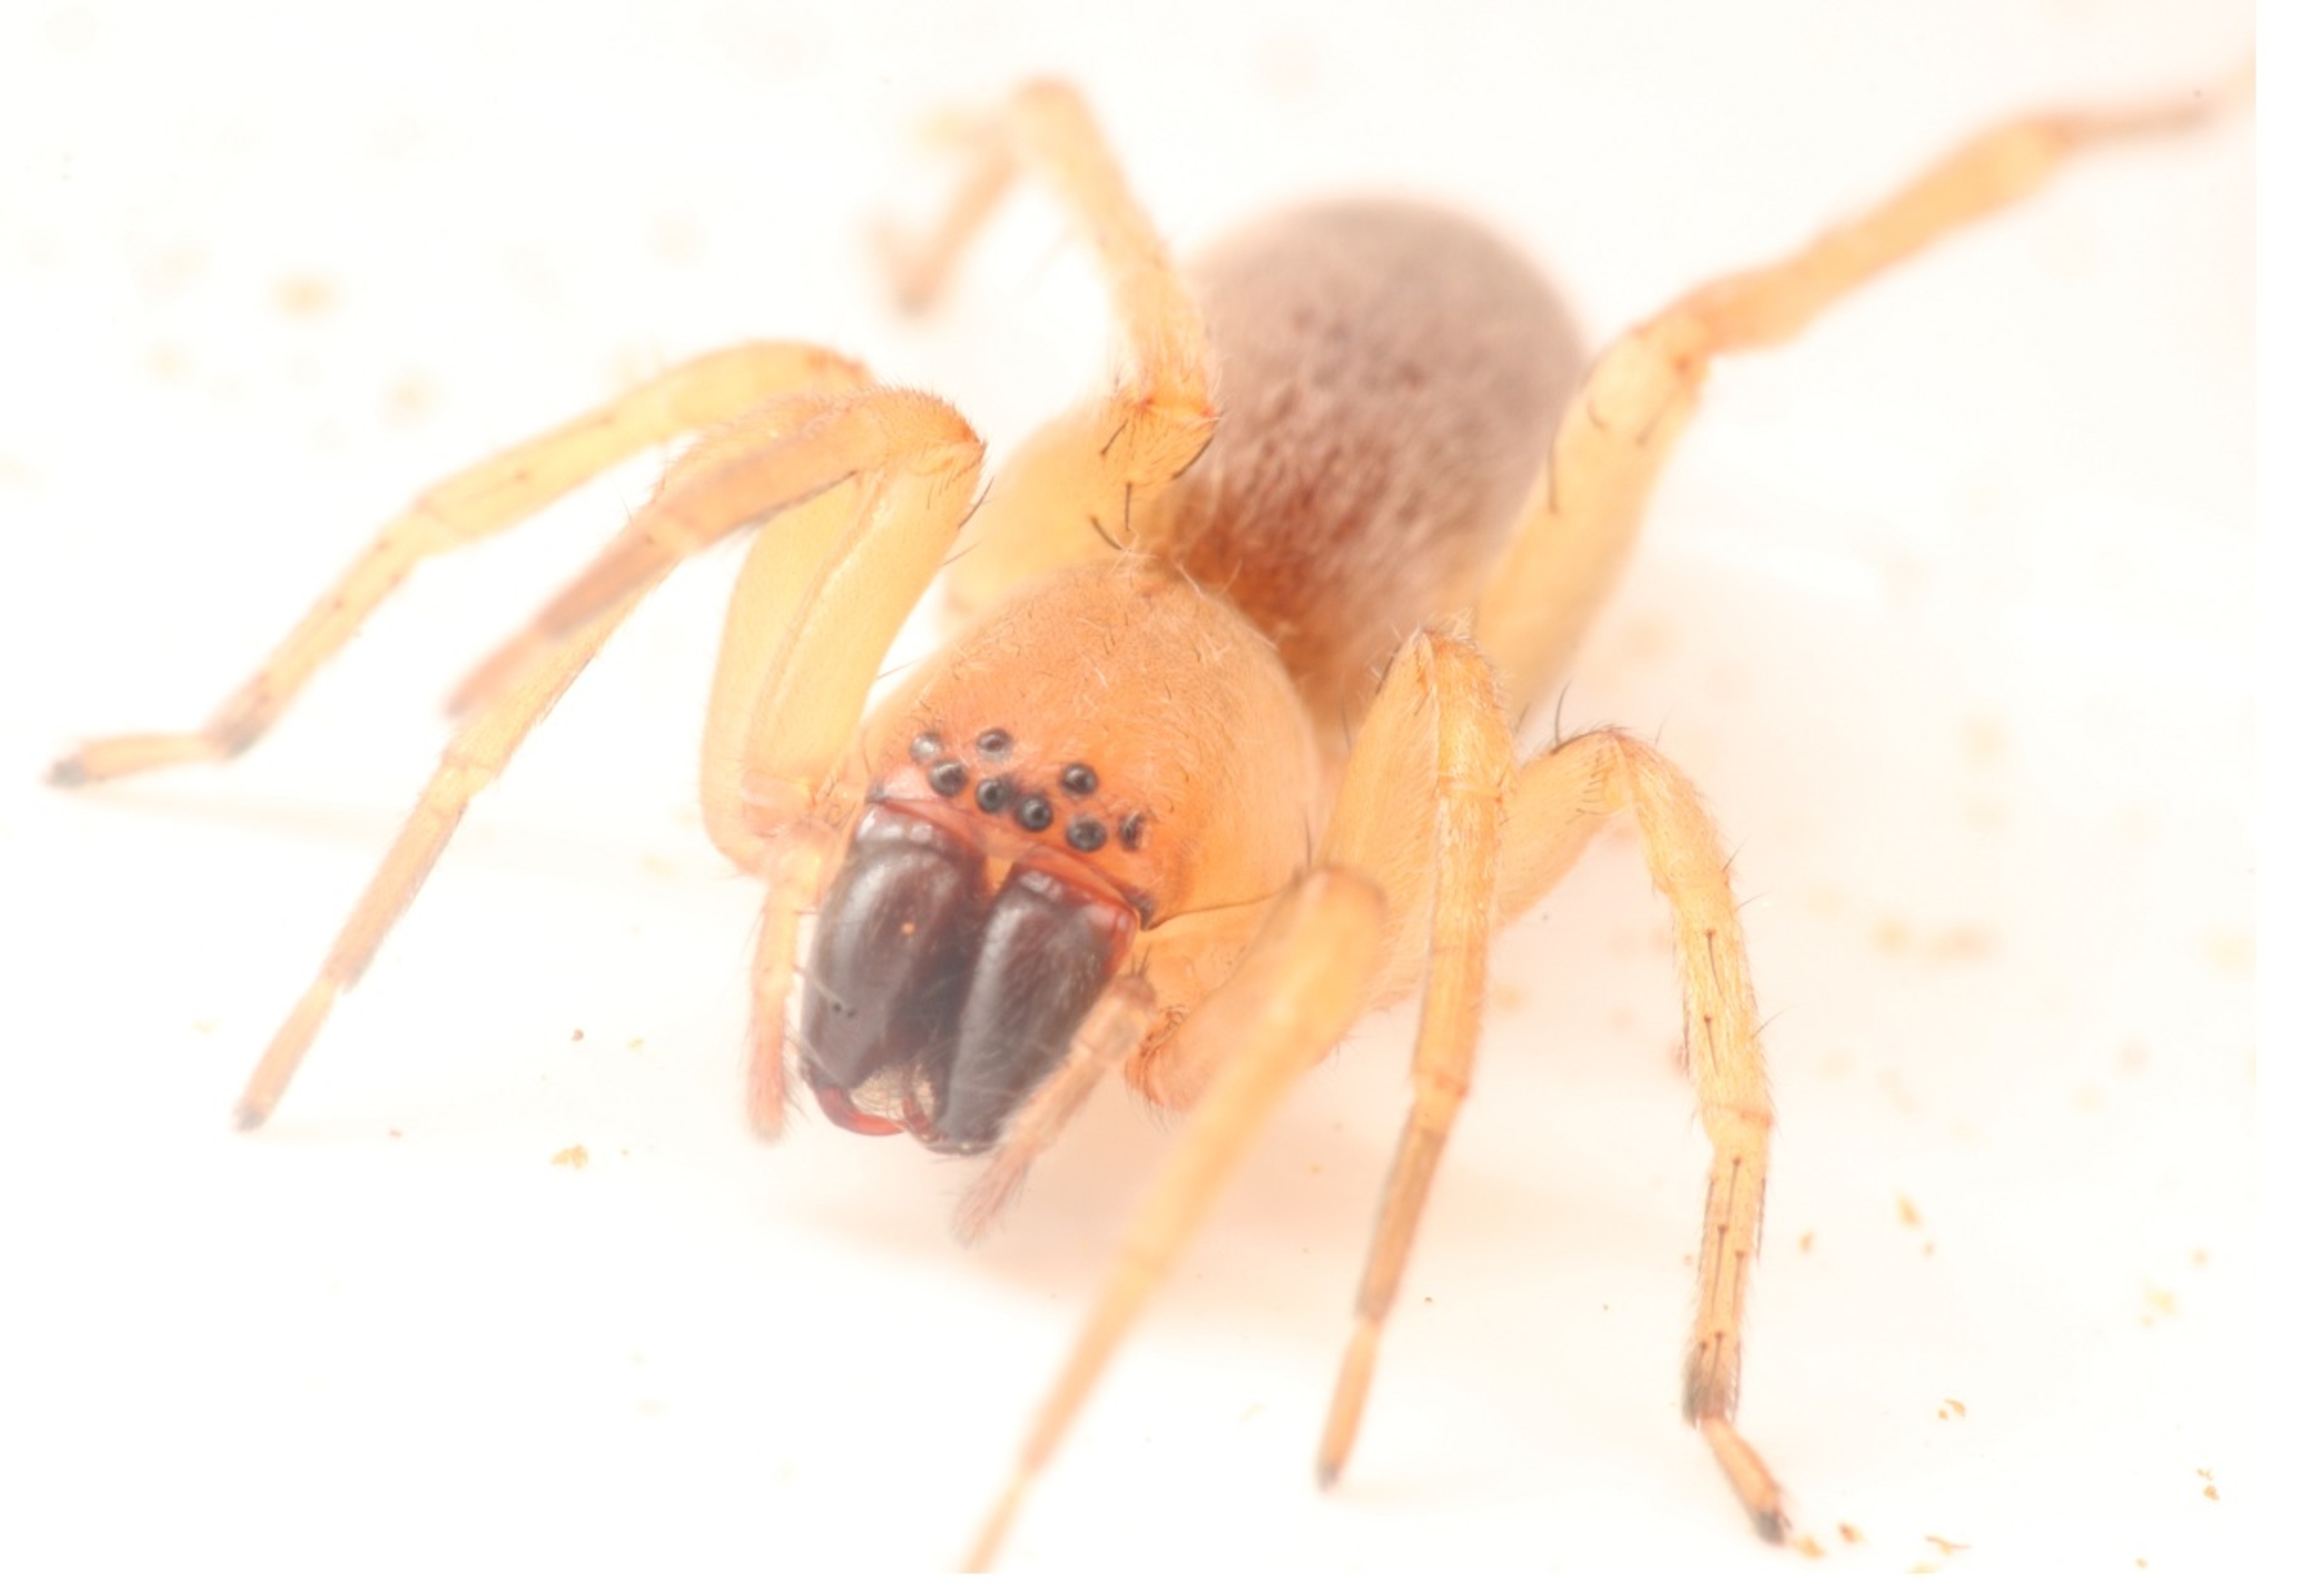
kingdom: Animalia
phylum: Arthropoda
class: Arachnida
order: Araneae
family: Clubionidae
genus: Clubiona
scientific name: Clubiona
